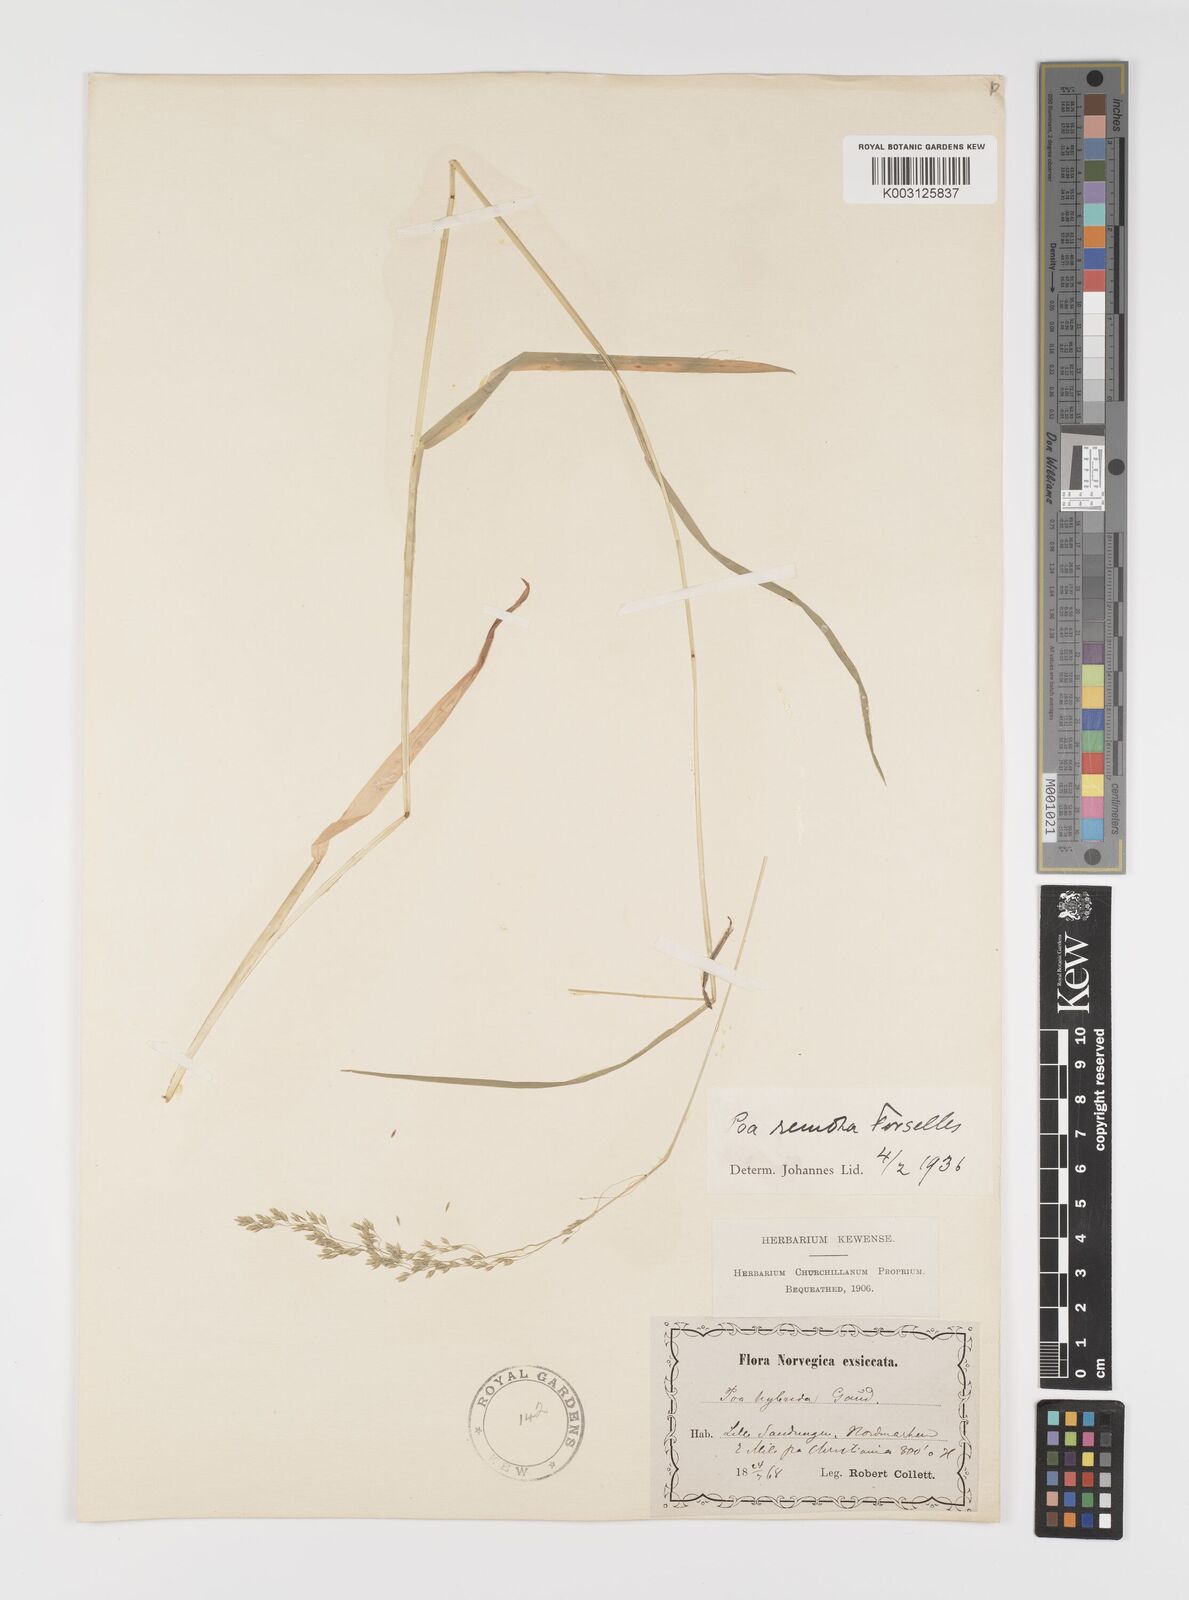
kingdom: Plantae
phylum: Tracheophyta
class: Liliopsida
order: Poales
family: Poaceae
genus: Poa
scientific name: Poa remota
